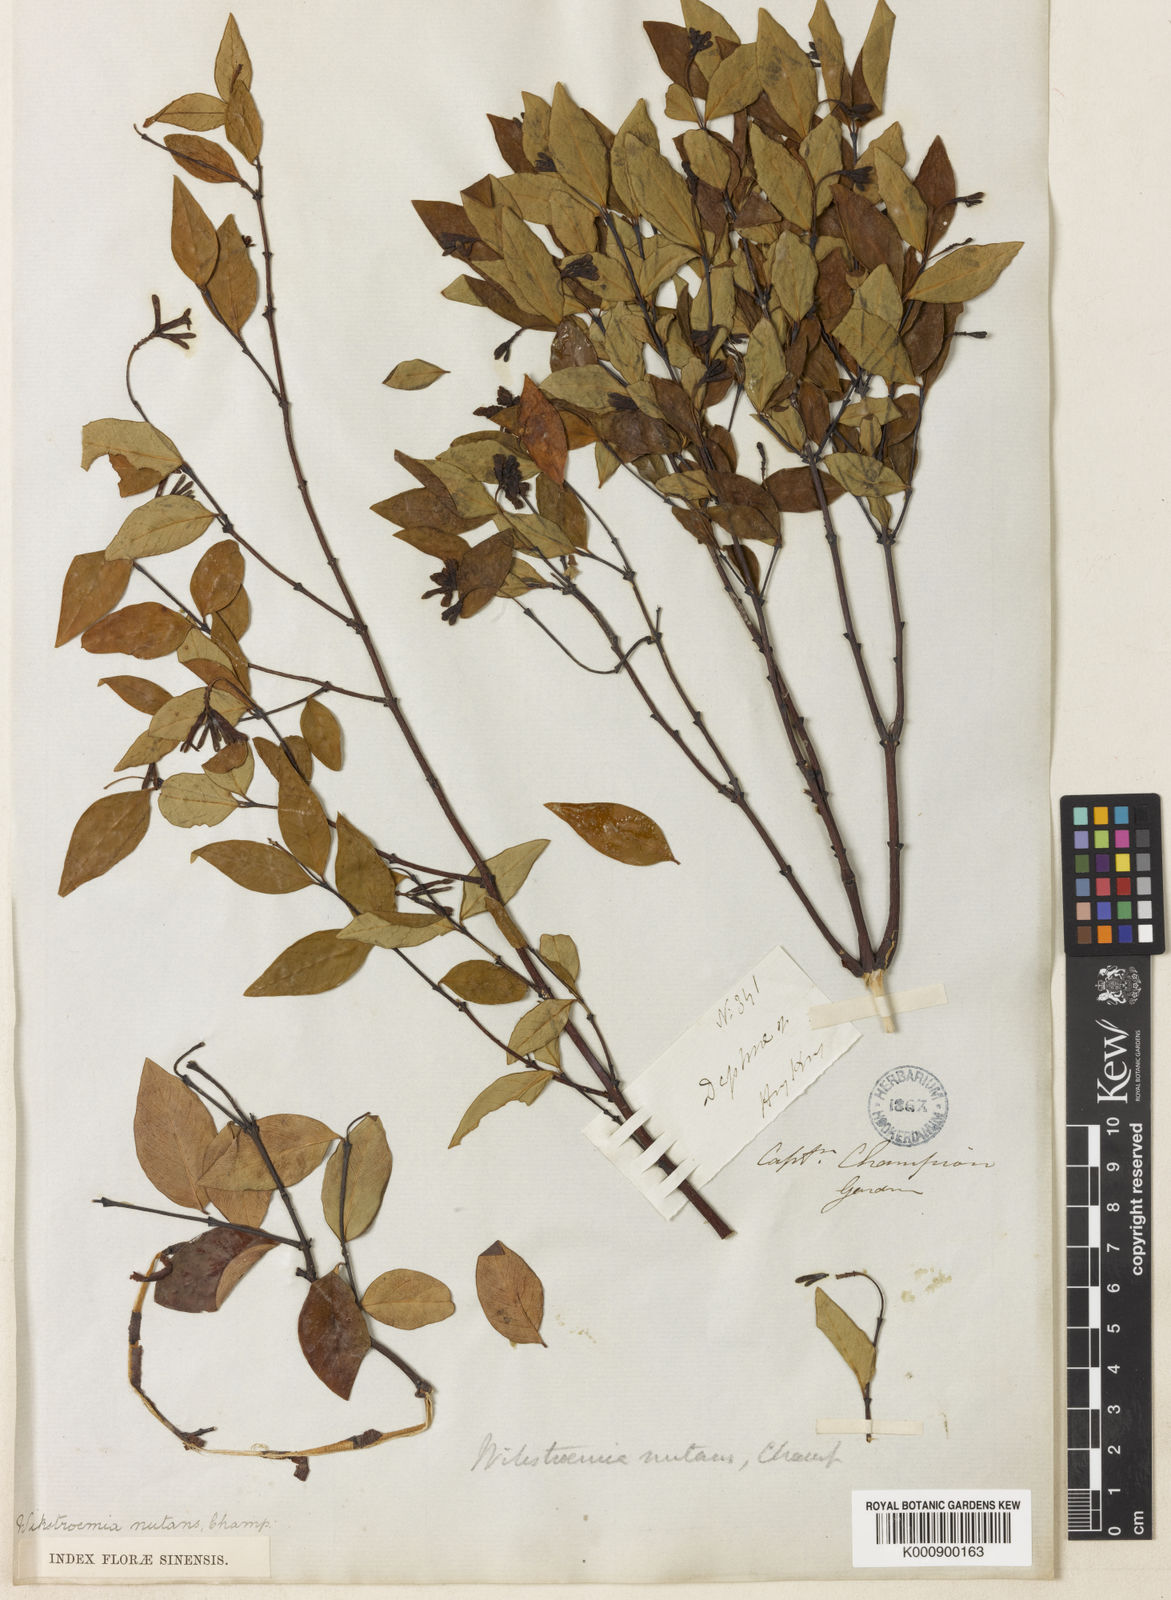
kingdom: Plantae
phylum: Tracheophyta
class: Magnoliopsida
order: Malvales
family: Thymelaeaceae
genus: Wikstroemia
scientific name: Wikstroemia nutans
